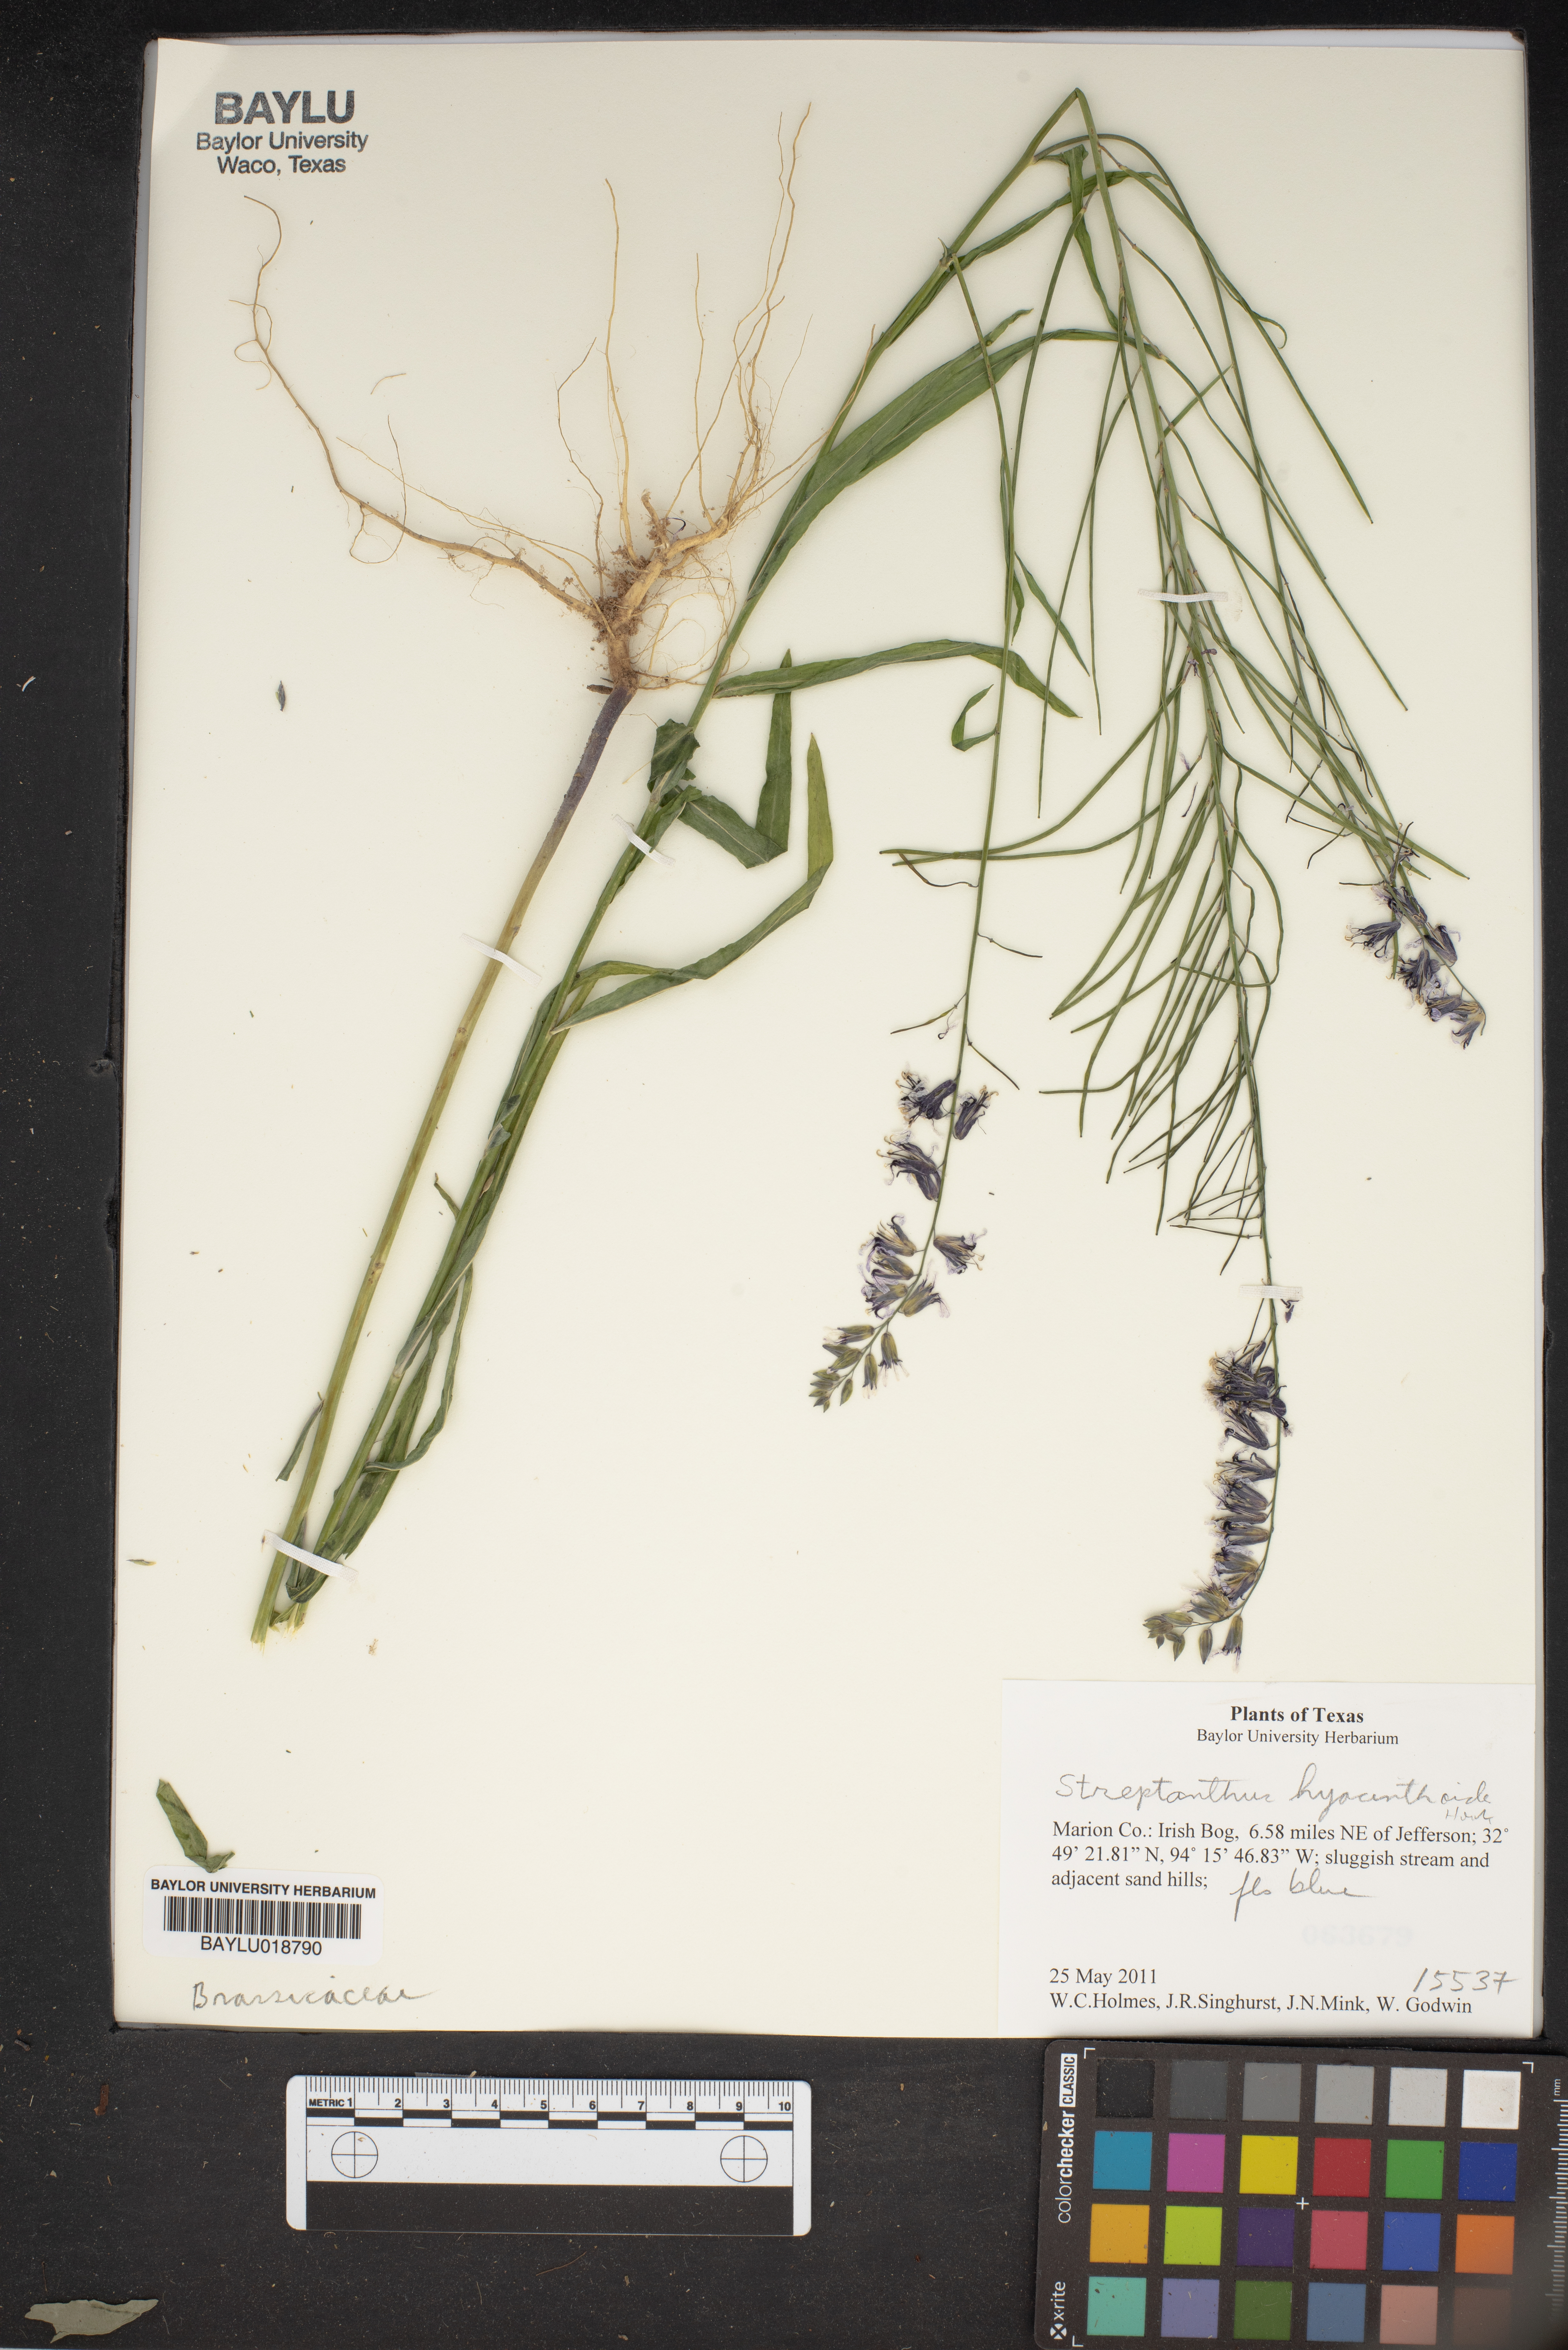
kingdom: Plantae
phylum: Tracheophyta
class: Magnoliopsida
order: Brassicales
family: Brassicaceae
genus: Streptanthus
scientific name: Streptanthus hyacinthoides
